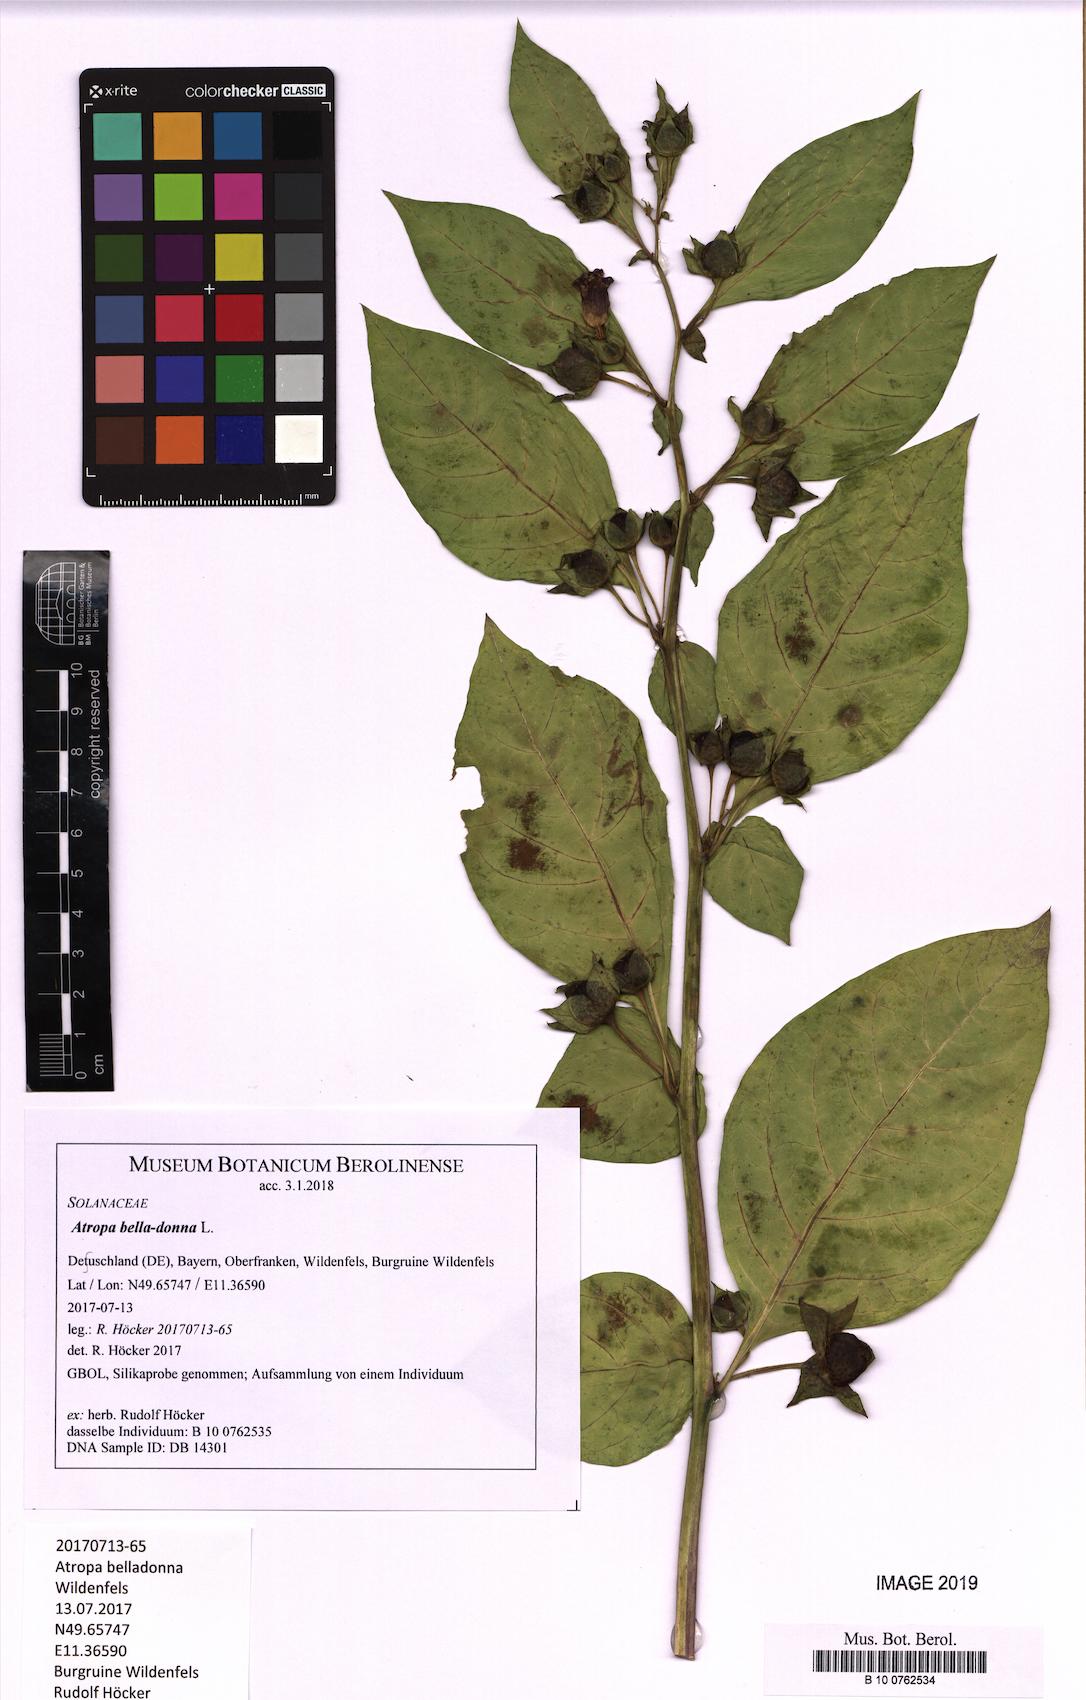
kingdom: Plantae
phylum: Tracheophyta
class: Magnoliopsida
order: Solanales
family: Solanaceae
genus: Atropa
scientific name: Atropa belladonna
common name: Deadly nightshade
